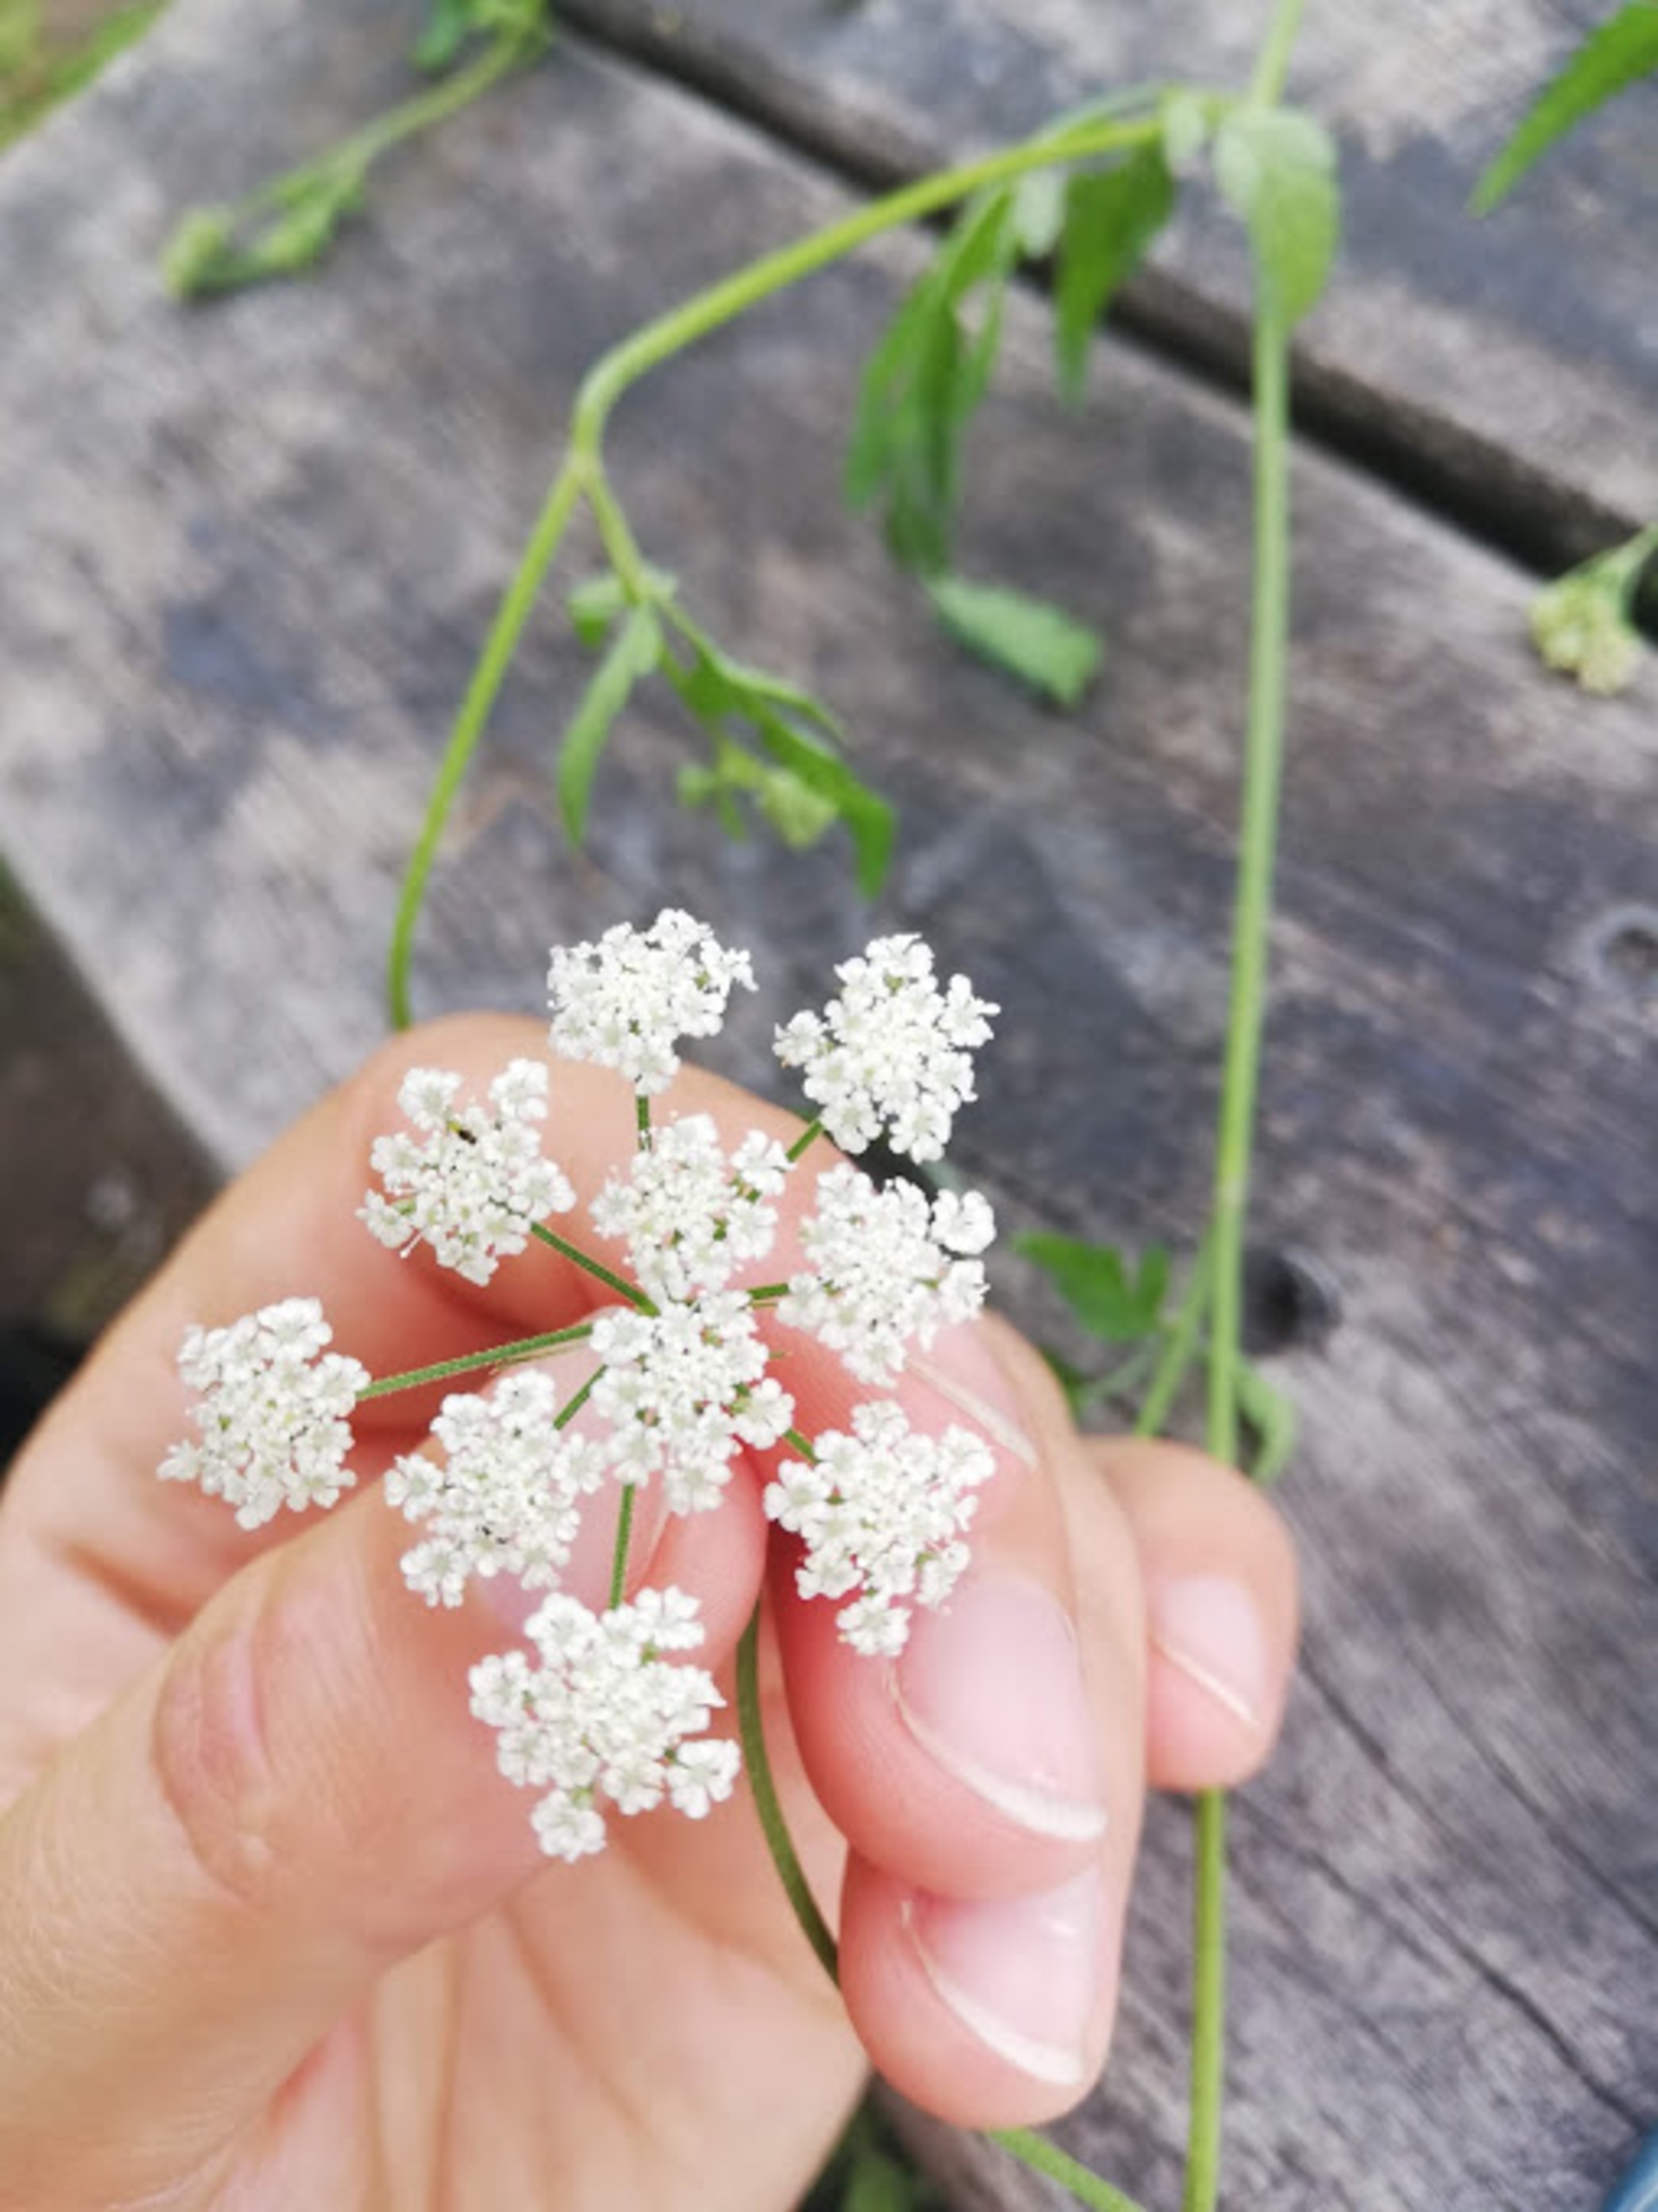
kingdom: Plantae
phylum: Tracheophyta
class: Magnoliopsida
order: Apiales
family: Apiaceae
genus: Torilis
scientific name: Torilis japonica
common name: Hvas randfrø
